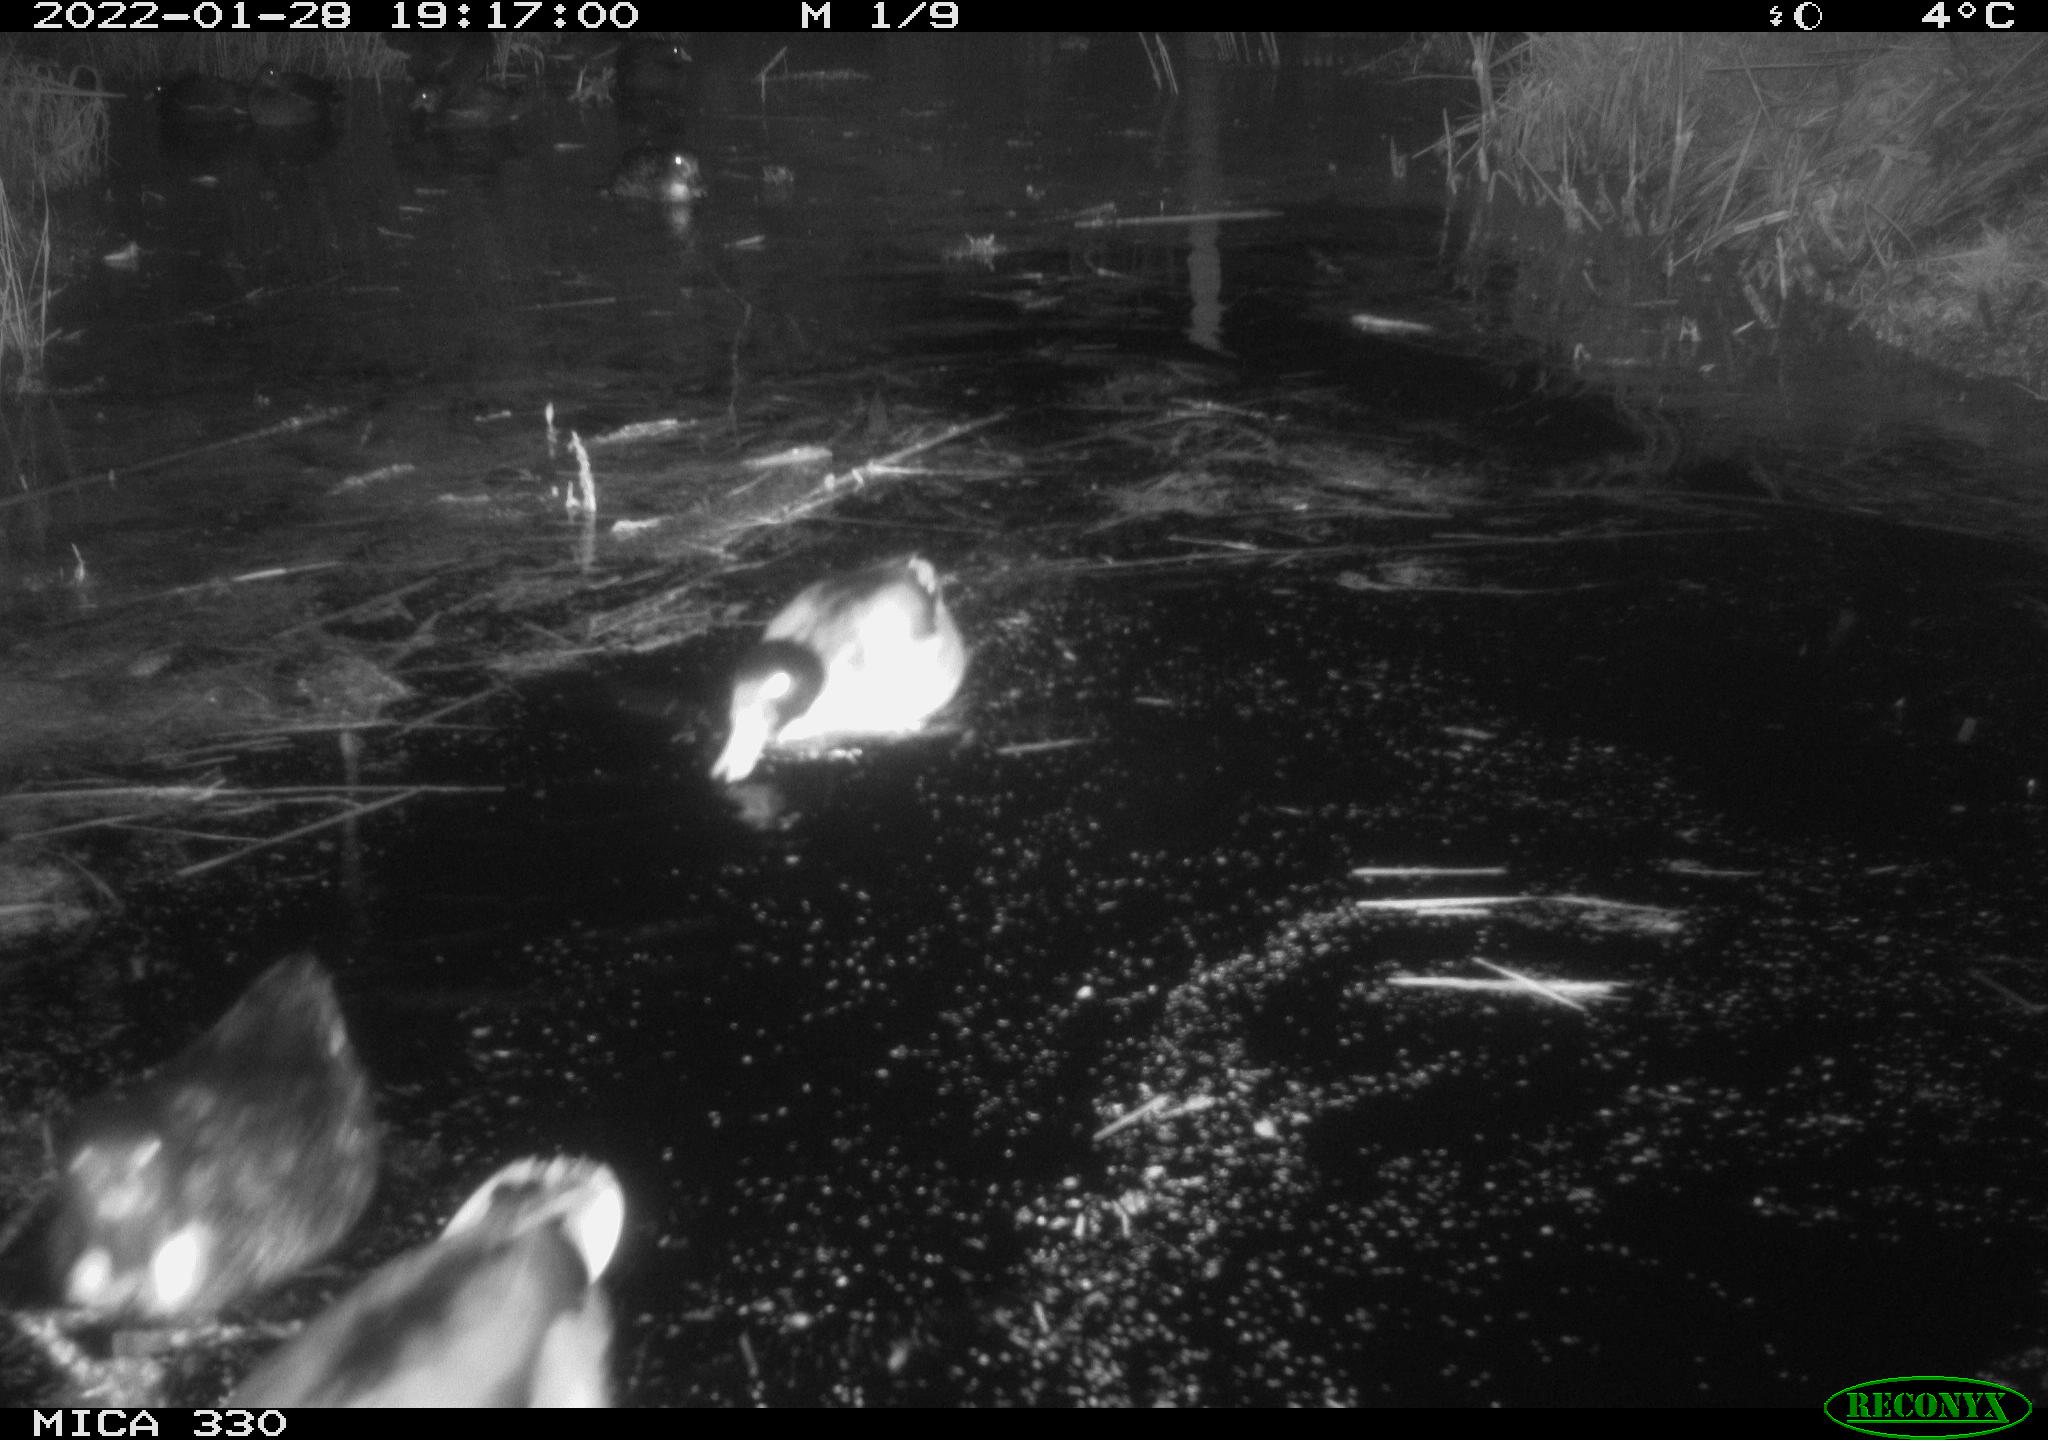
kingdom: Animalia
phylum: Chordata
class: Aves
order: Anseriformes
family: Anatidae
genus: Anas
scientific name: Anas platyrhynchos
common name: Mallard
